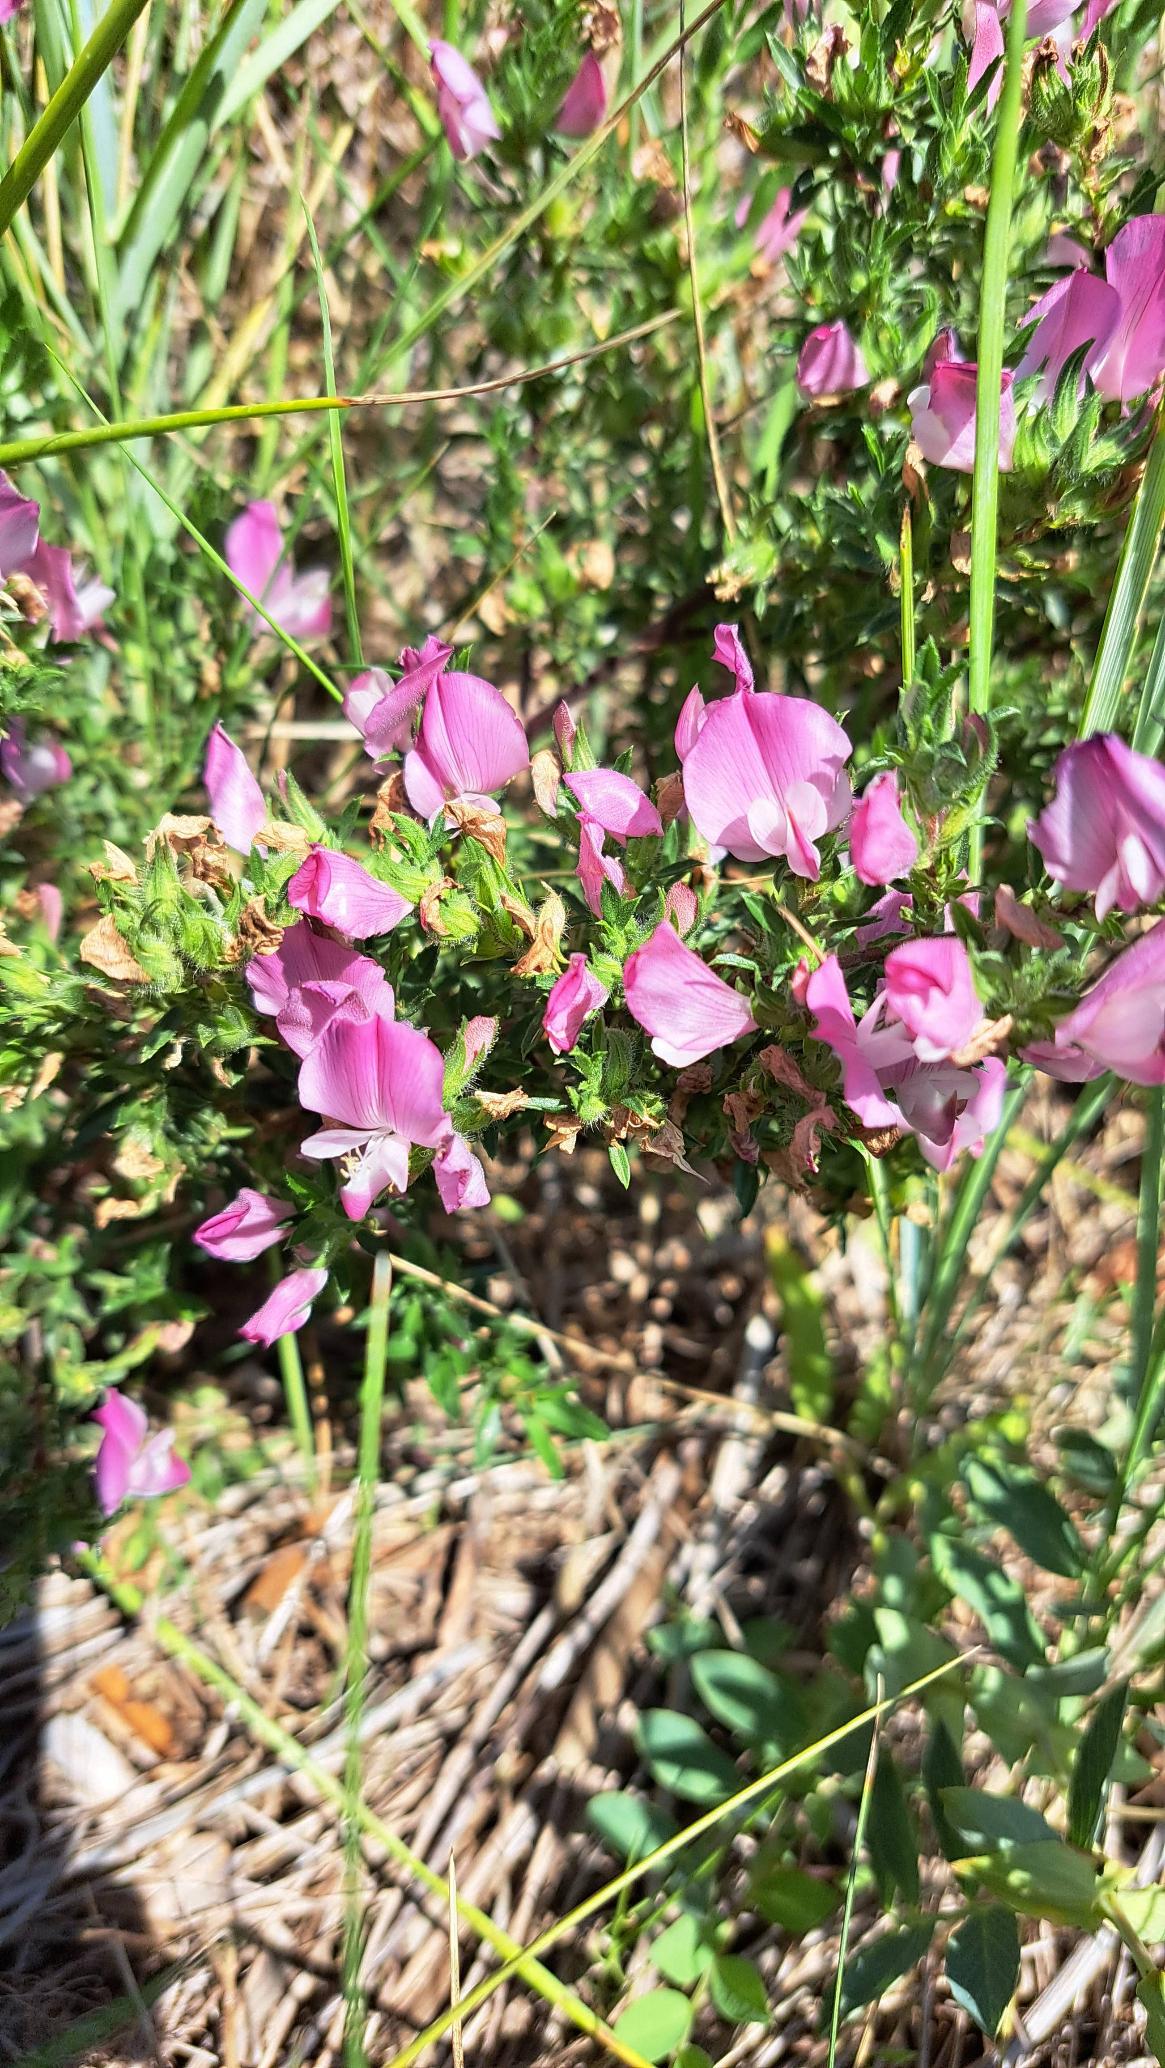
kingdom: Plantae
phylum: Tracheophyta
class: Magnoliopsida
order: Fabales
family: Fabaceae
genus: Ononis
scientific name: Ononis spinosa
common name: Strand-krageklo
